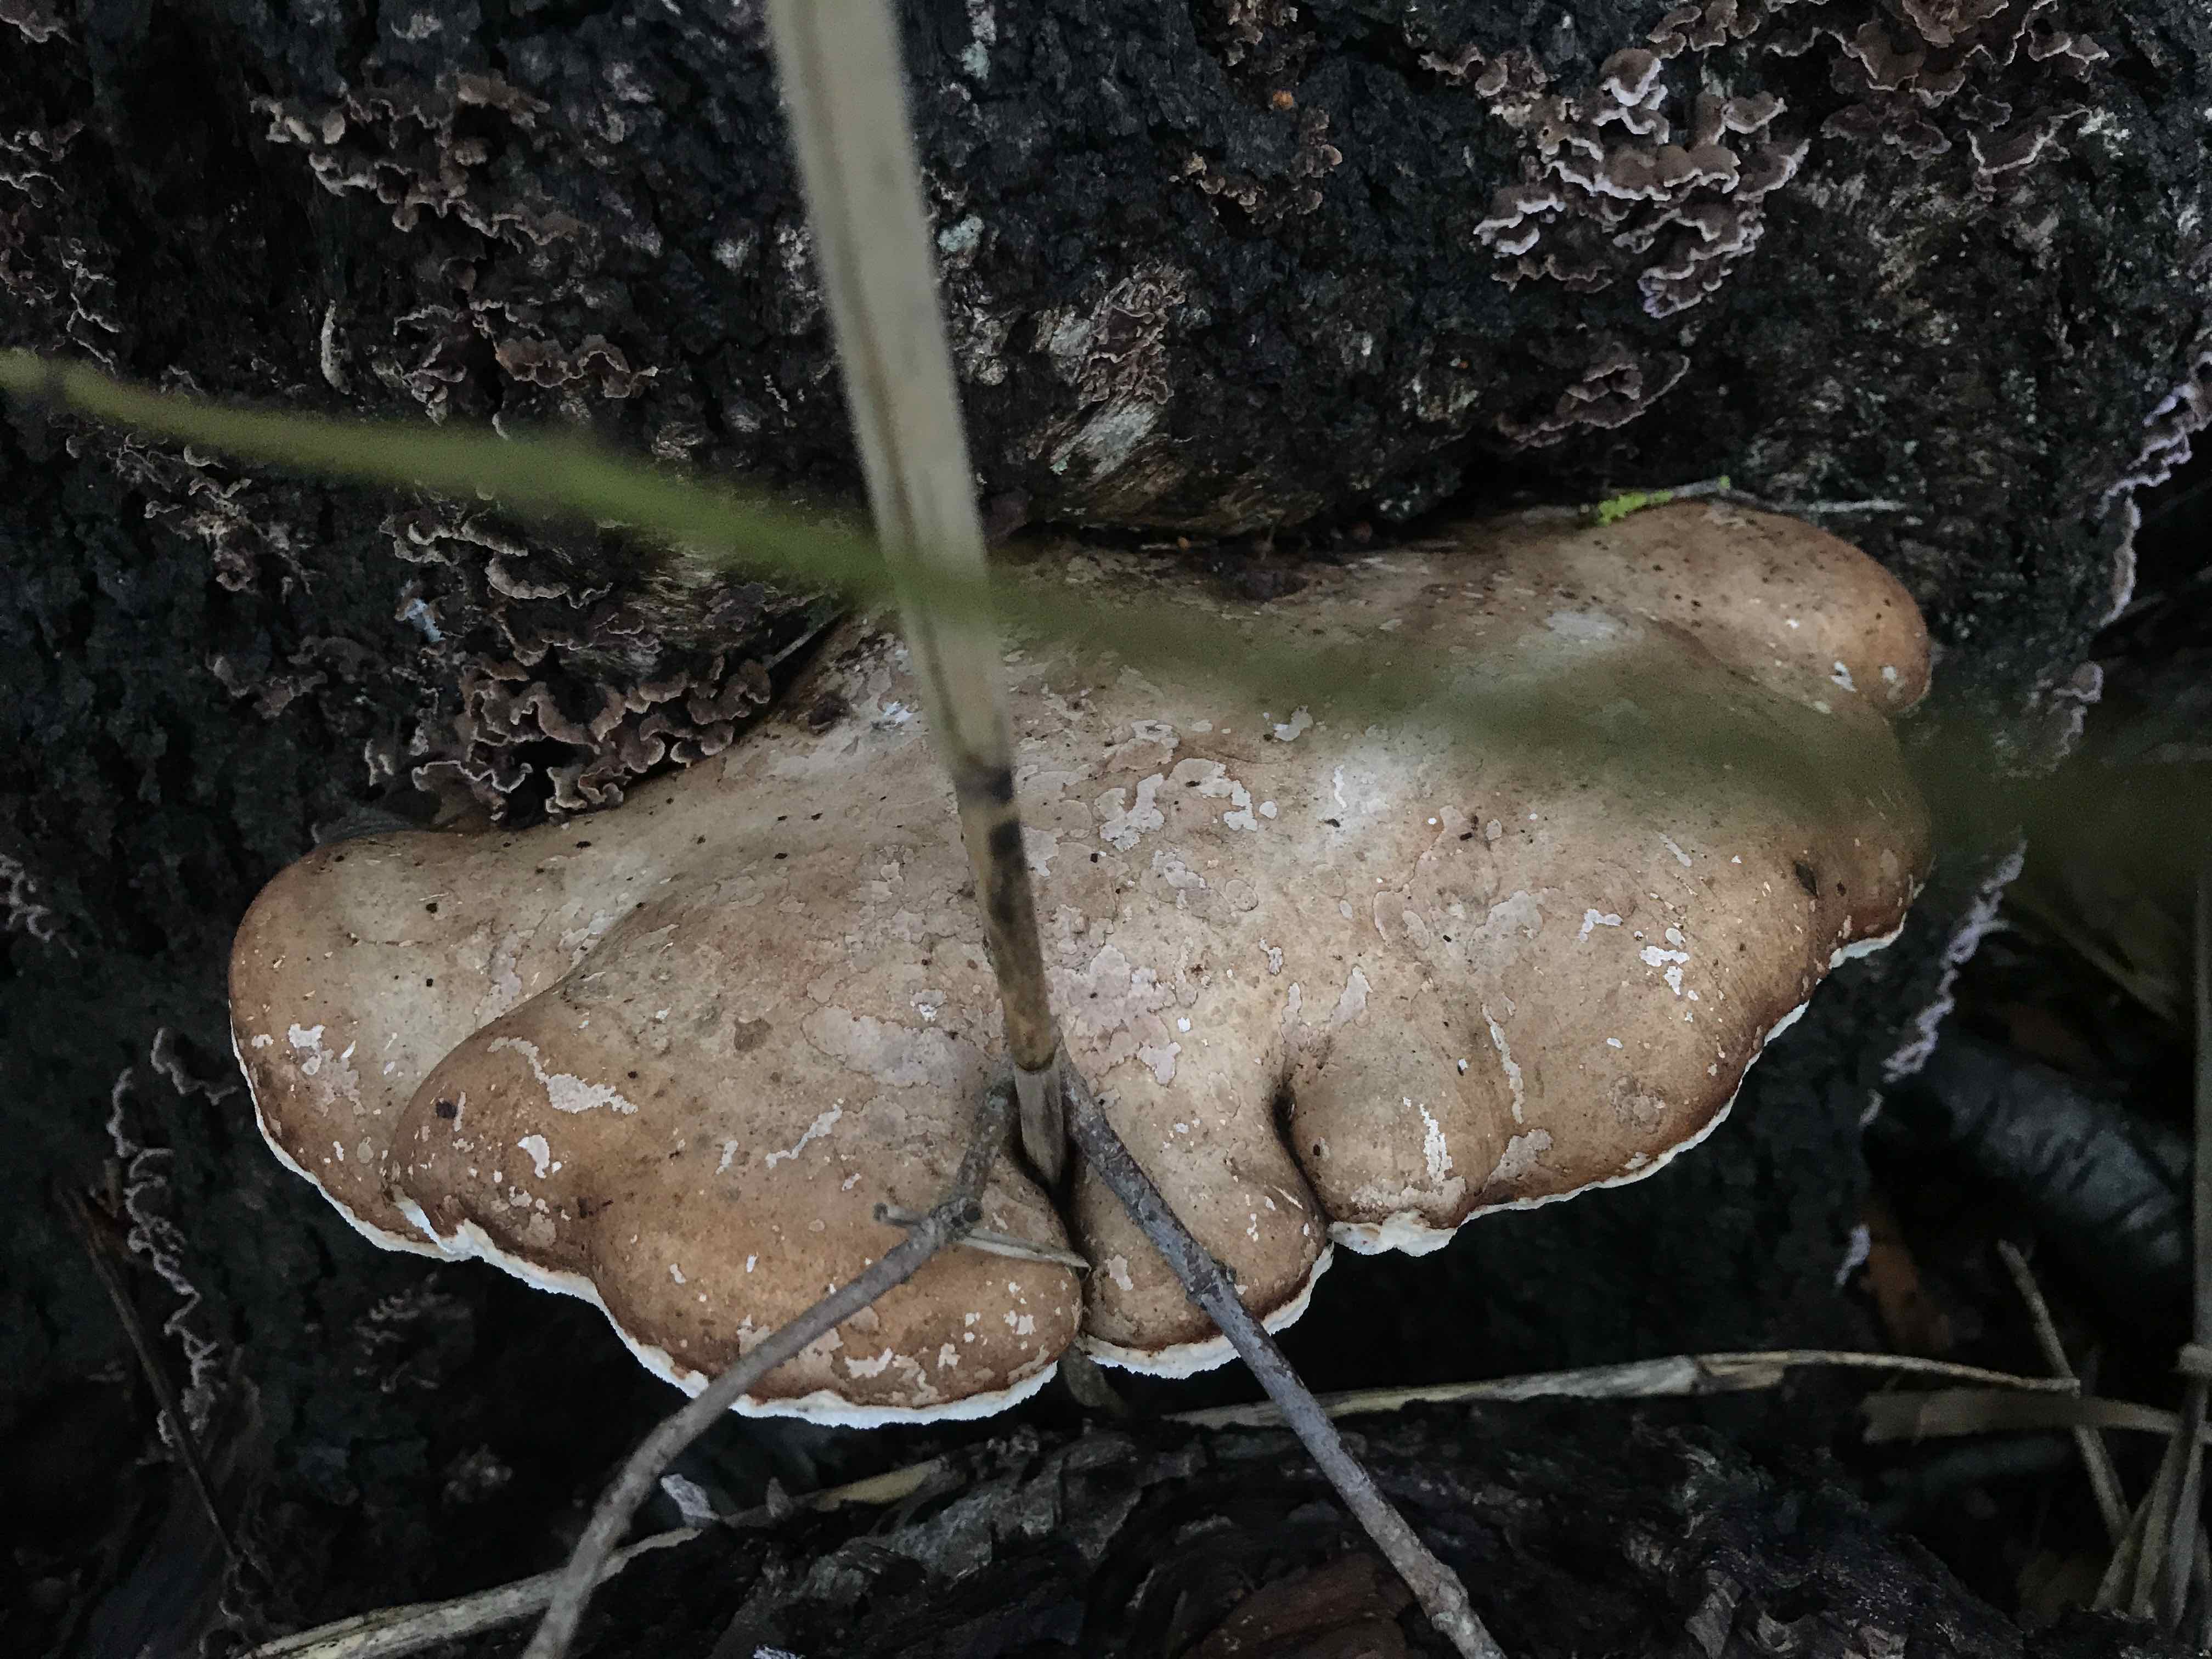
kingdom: Fungi
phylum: Basidiomycota
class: Agaricomycetes
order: Polyporales
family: Fomitopsidaceae
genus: Fomitopsis
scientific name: Fomitopsis betulina
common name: birkeporesvamp
